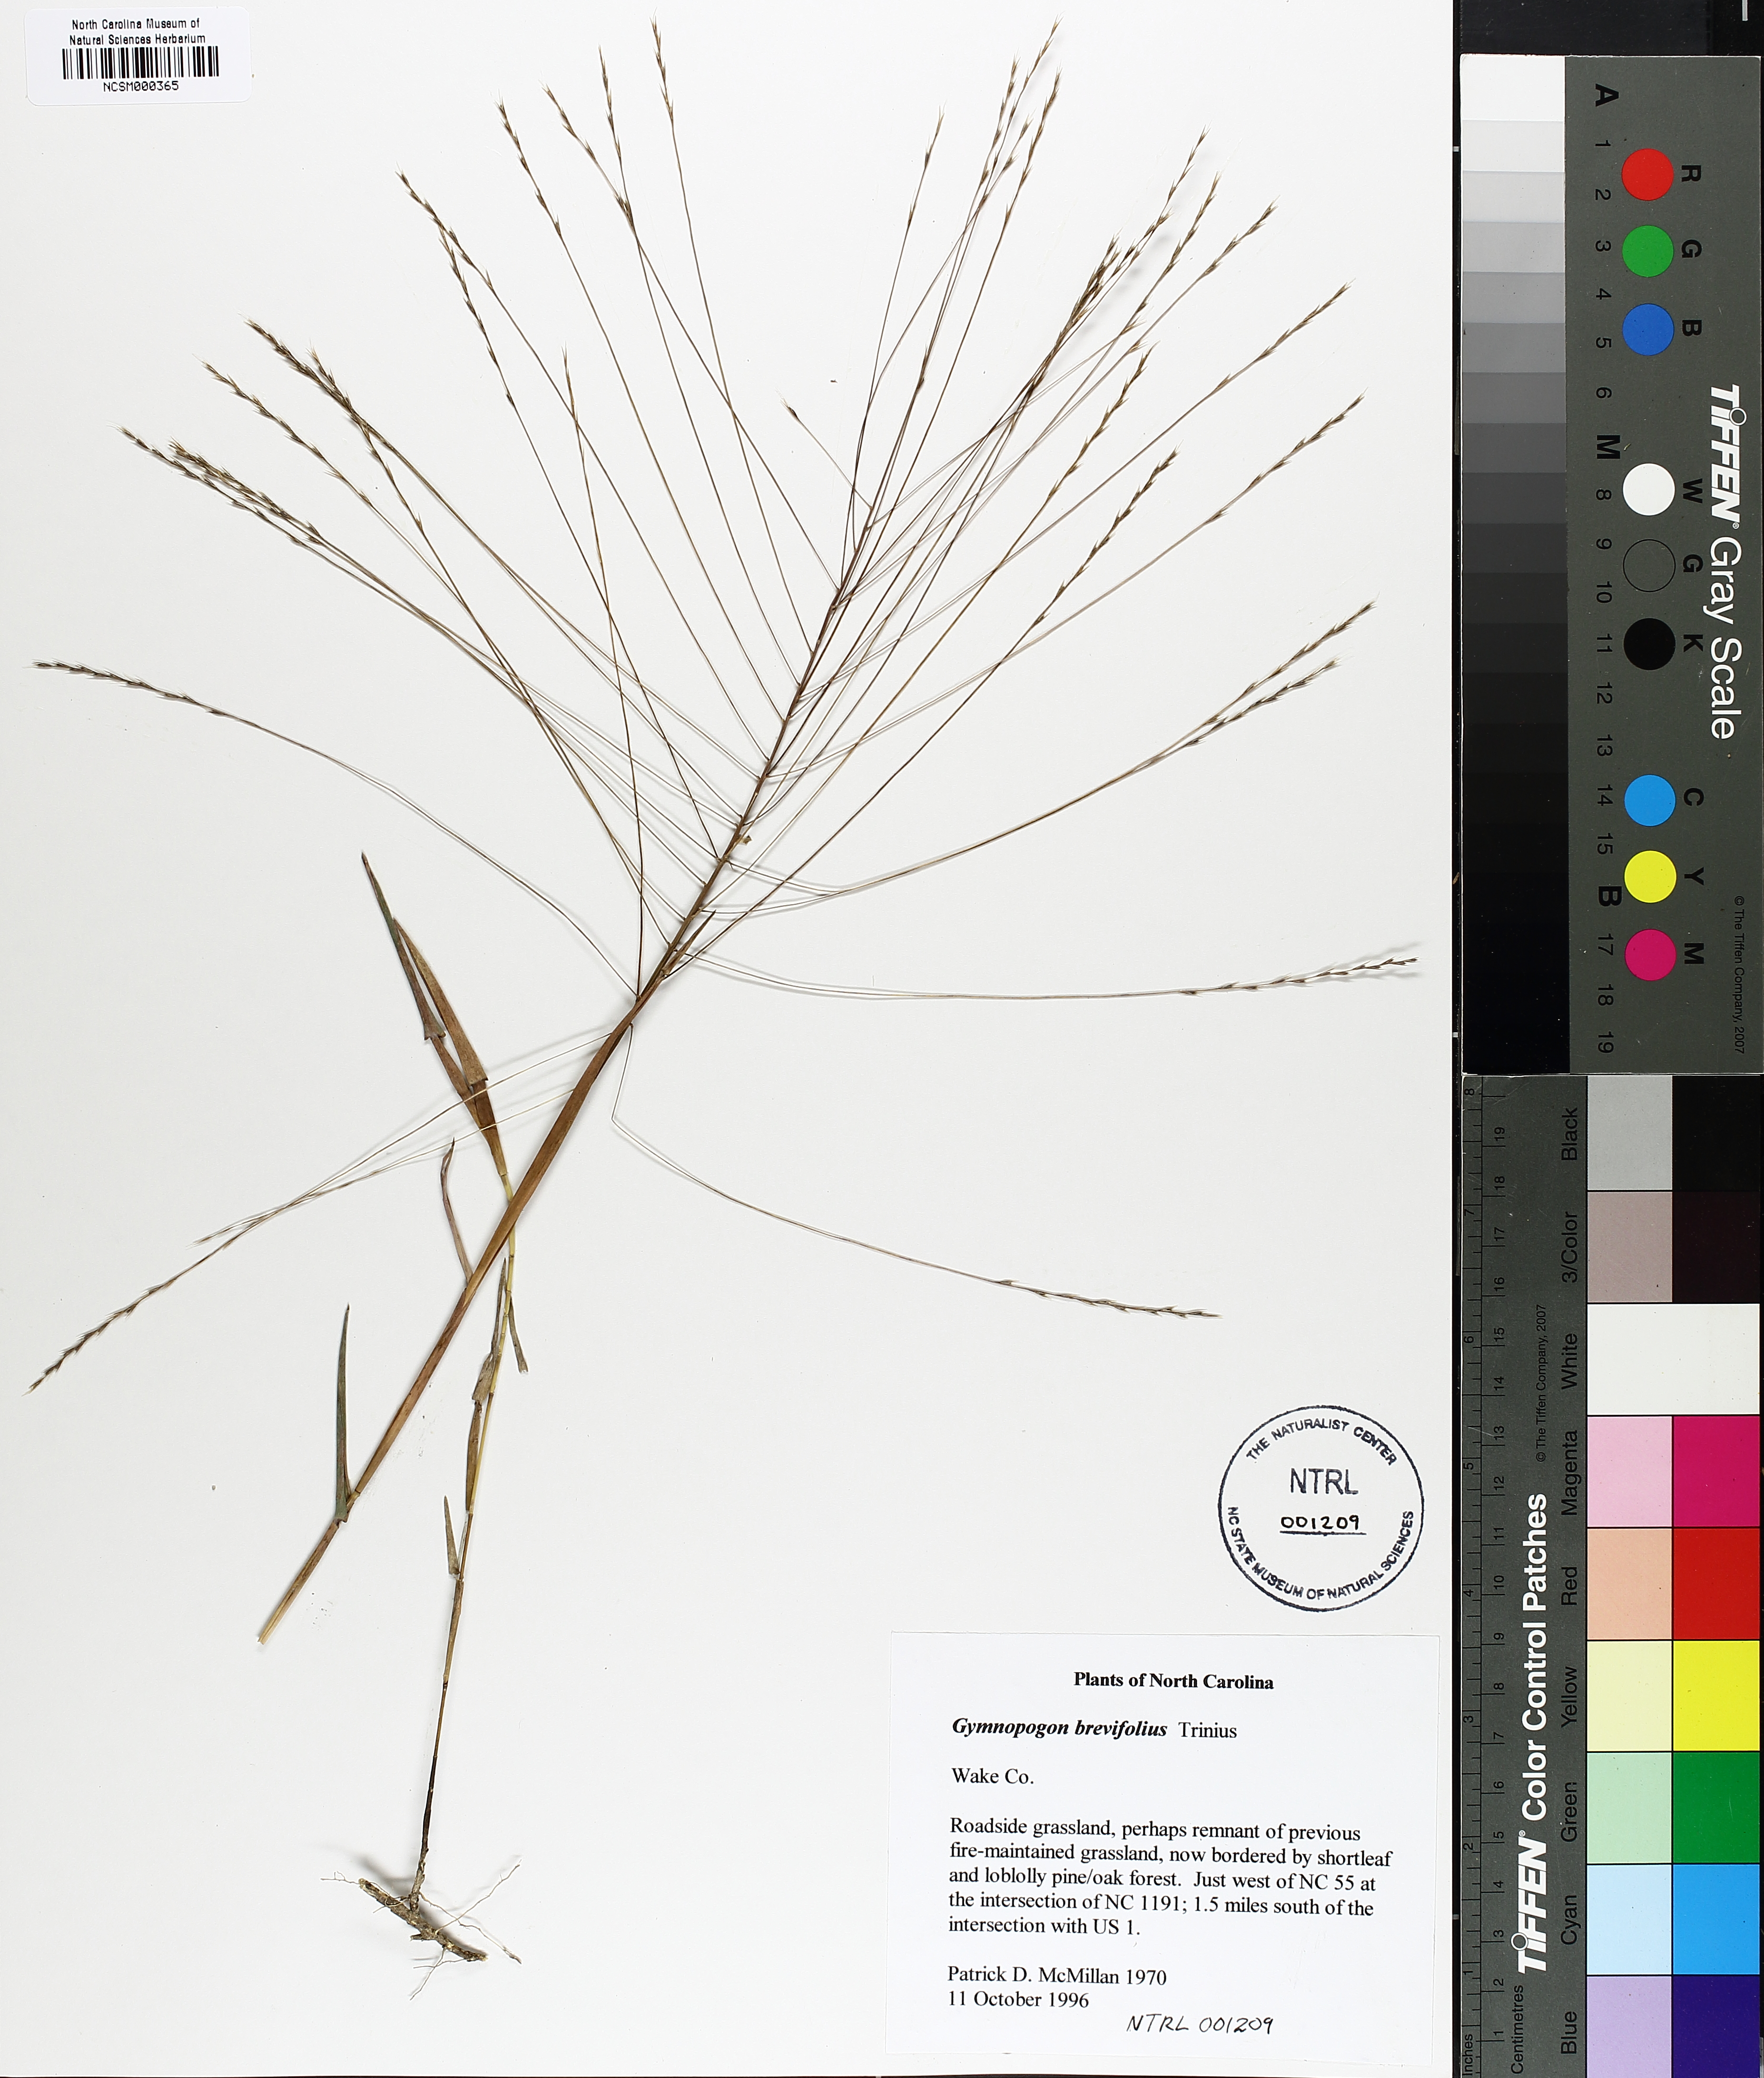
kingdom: Plantae
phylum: Tracheophyta
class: Liliopsida
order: Poales
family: Poaceae
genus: Gymnopogon
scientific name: Gymnopogon brevifolius
